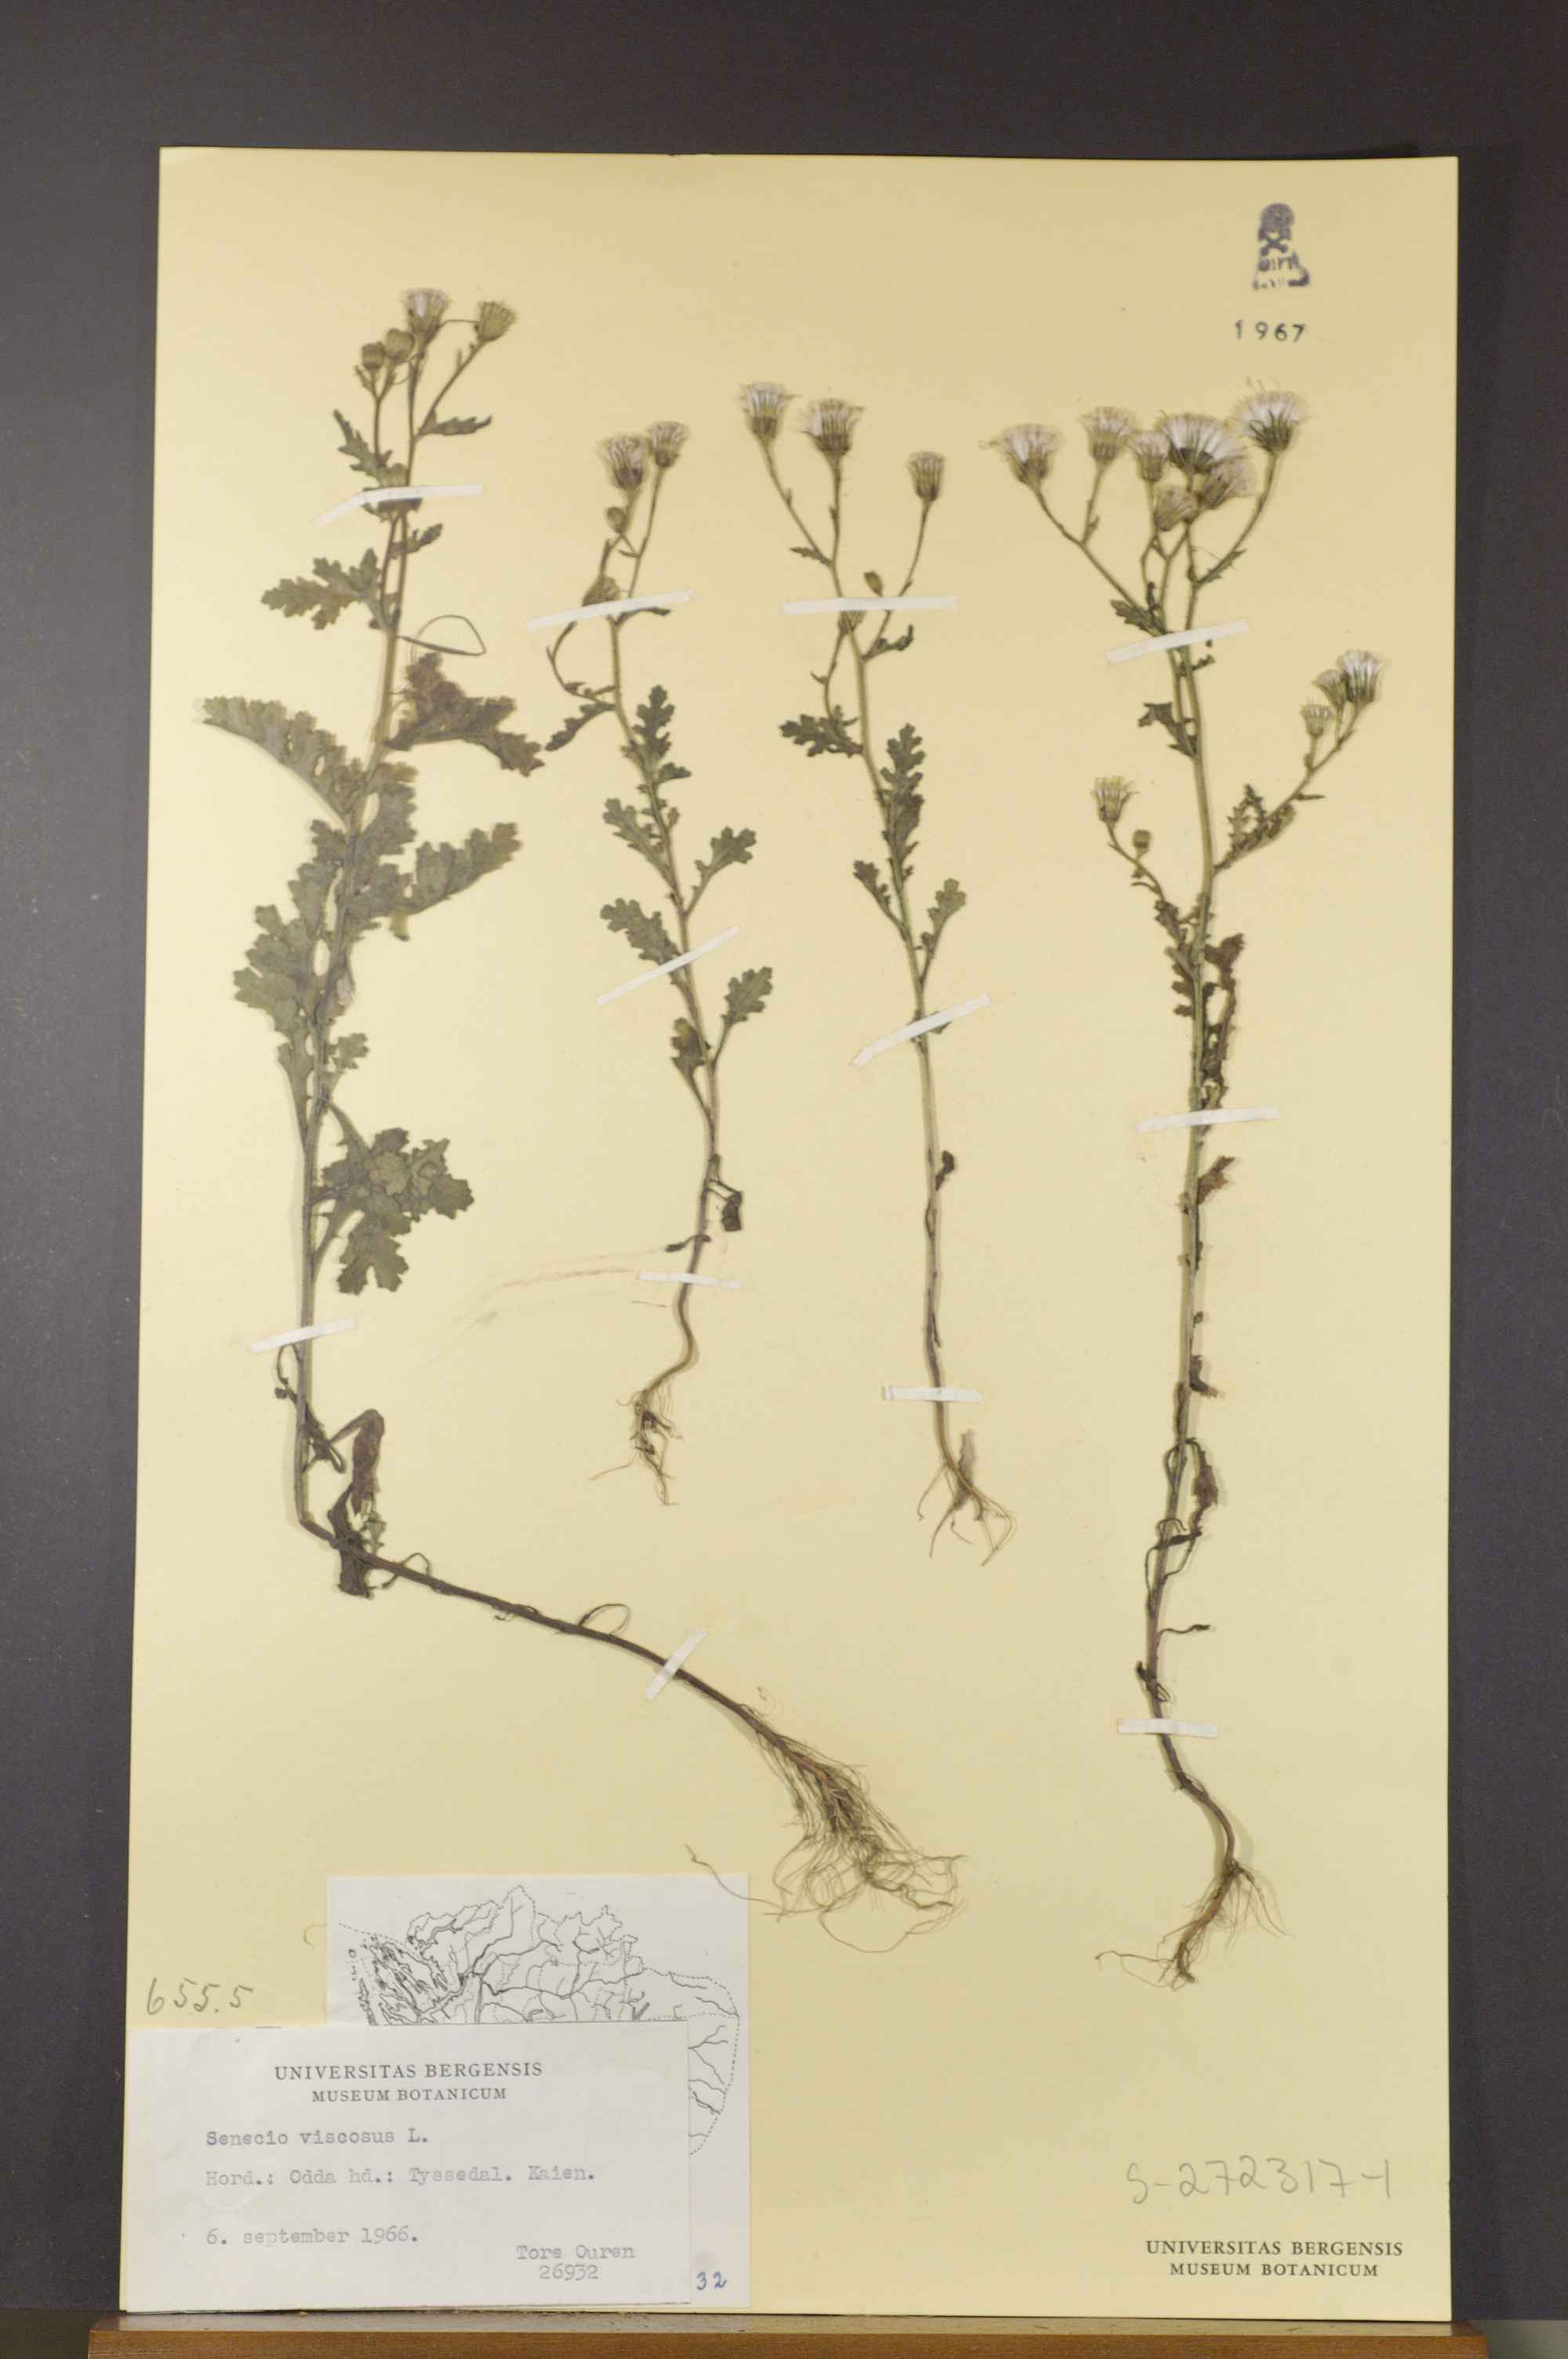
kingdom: Plantae
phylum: Tracheophyta
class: Magnoliopsida
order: Asterales
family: Asteraceae
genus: Senecio
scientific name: Senecio viscosus
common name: Sticky groundsel
